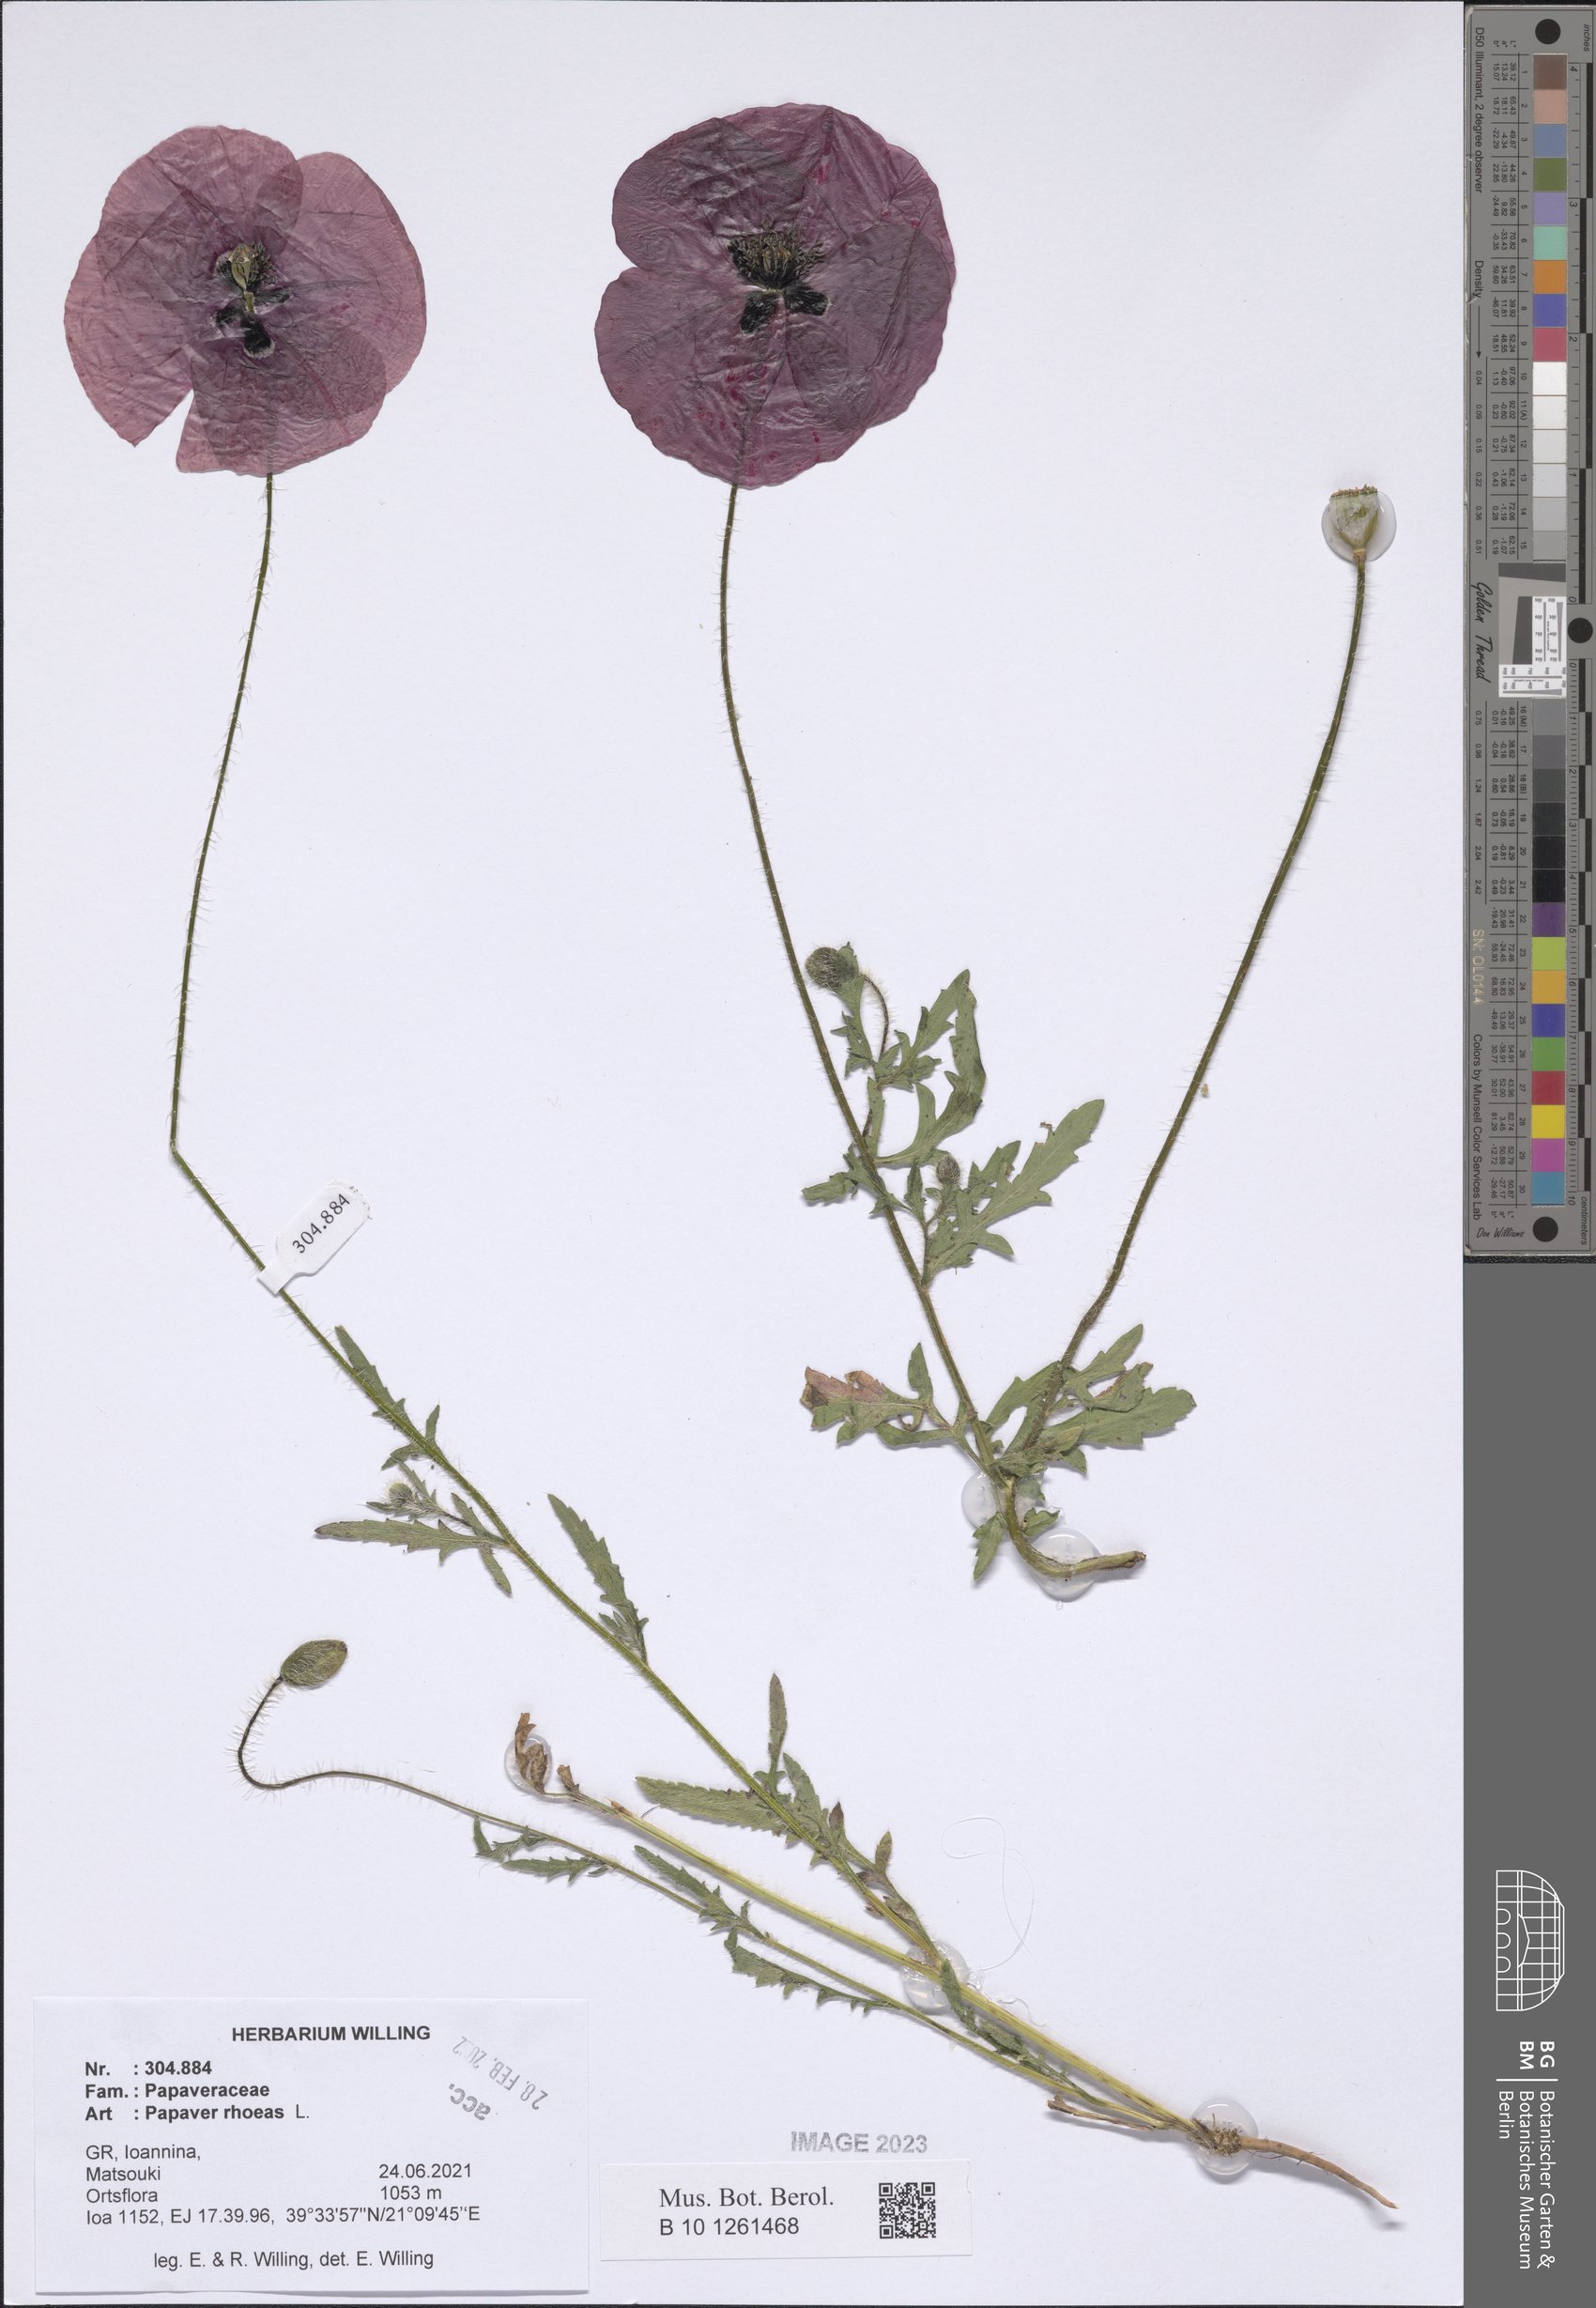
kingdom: Plantae
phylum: Tracheophyta
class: Magnoliopsida
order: Ranunculales
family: Papaveraceae
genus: Papaver
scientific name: Papaver rhoeas
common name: Corn poppy
